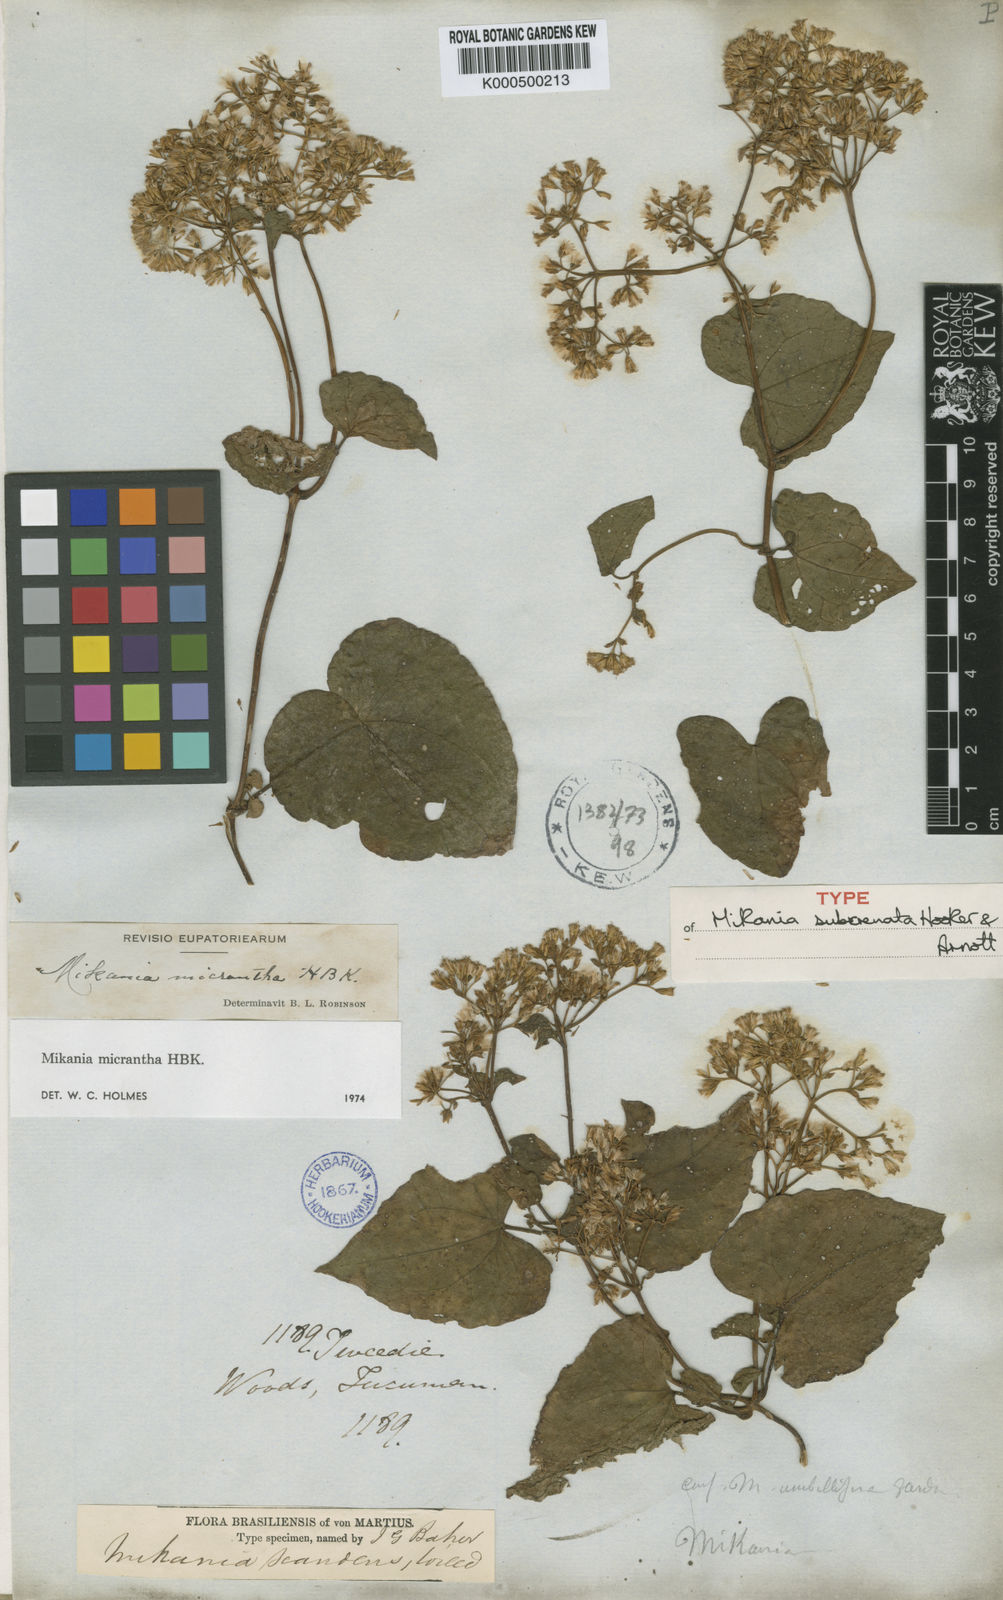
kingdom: Plantae
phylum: Tracheophyta
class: Magnoliopsida
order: Asterales
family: Asteraceae
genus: Mikania
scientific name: Mikania micrantha
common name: Mile-a-minute
